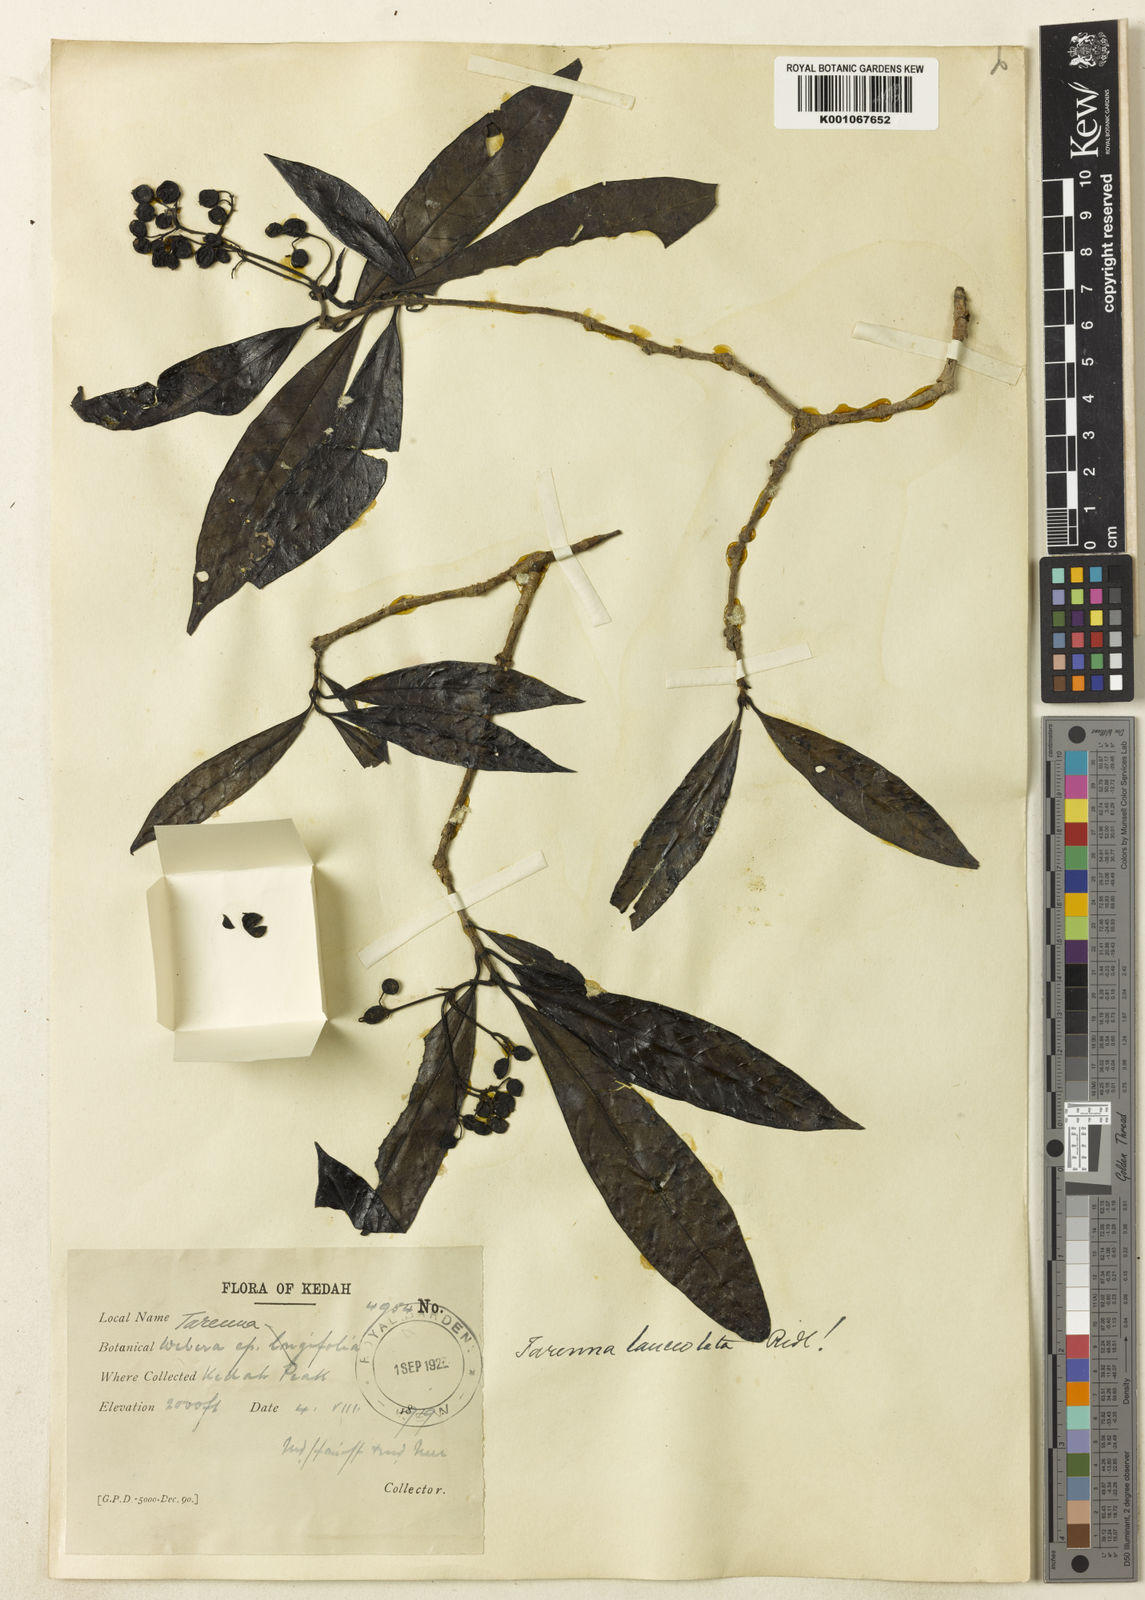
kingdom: Plantae
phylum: Tracheophyta
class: Magnoliopsida
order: Gentianales
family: Rubiaceae
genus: Tarenna
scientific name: Tarenna adpressa
